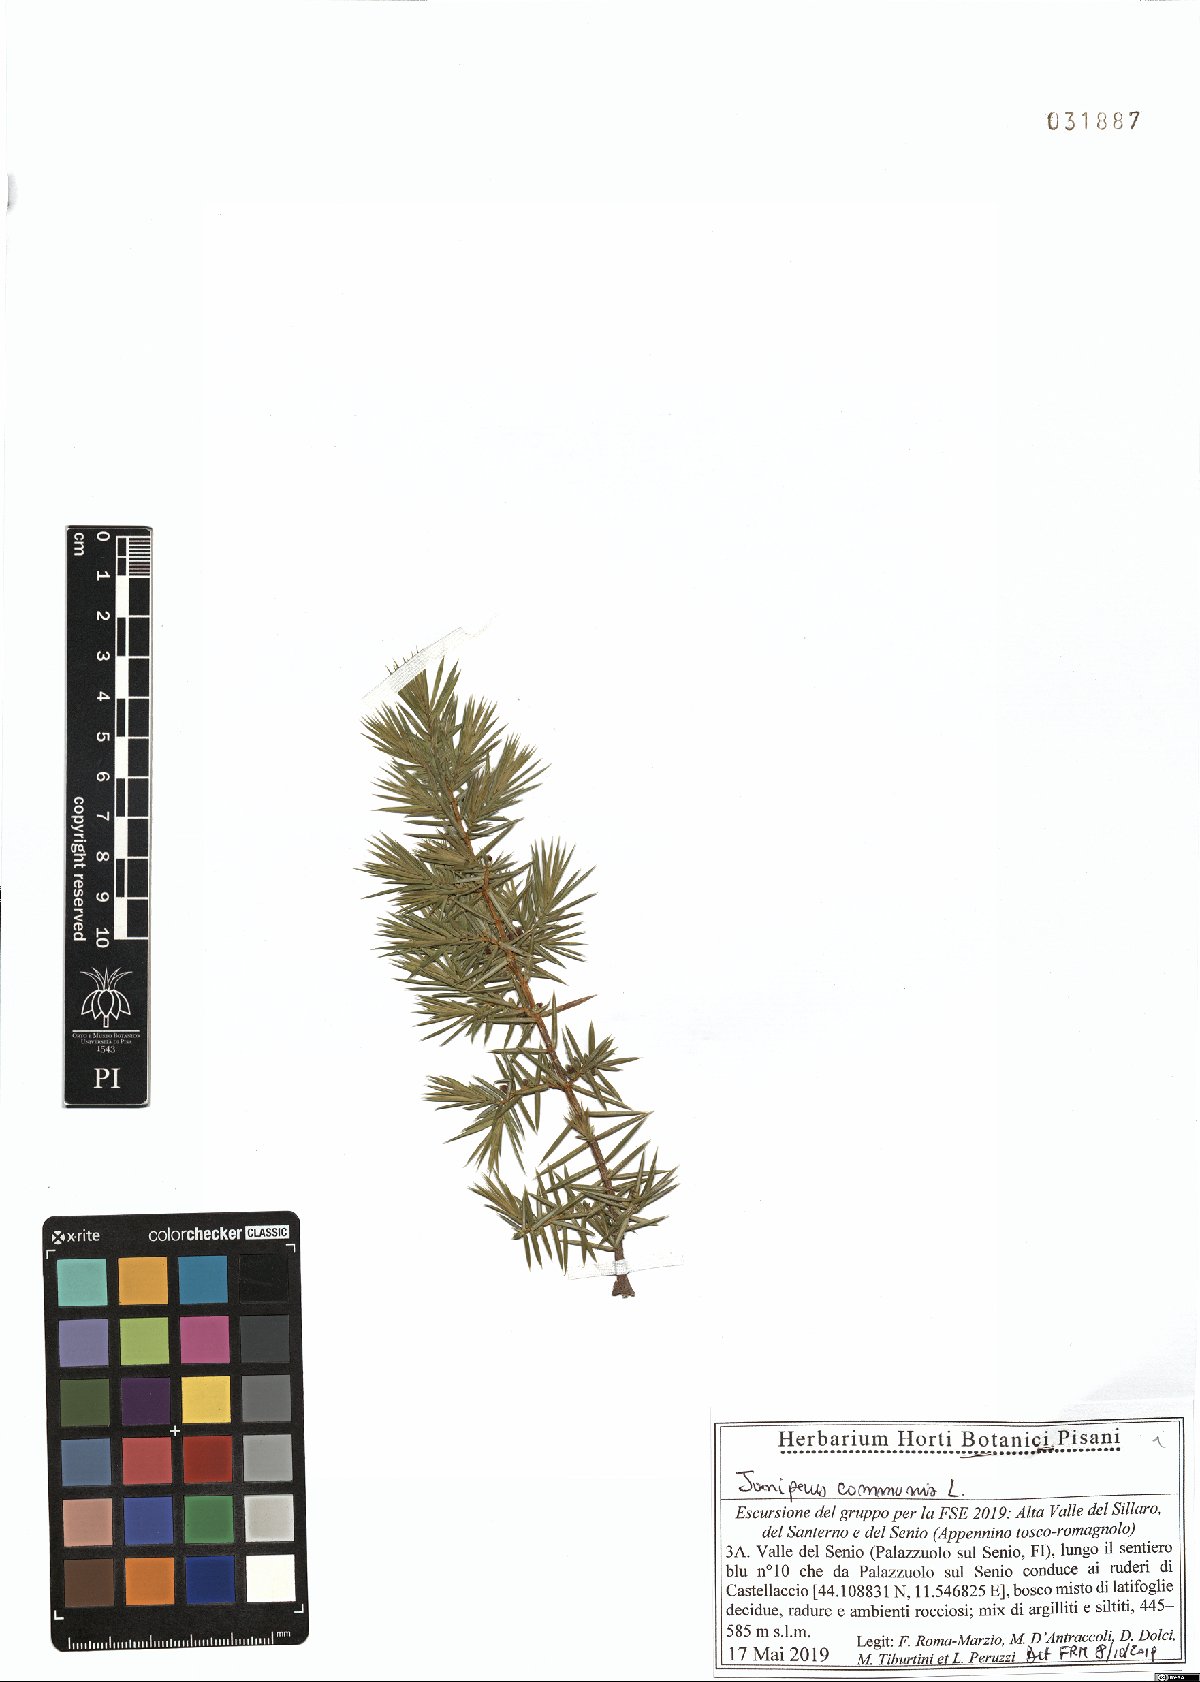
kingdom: Plantae
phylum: Tracheophyta
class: Pinopsida
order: Pinales
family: Cupressaceae
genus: Juniperus
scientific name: Juniperus communis
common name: Common juniper
